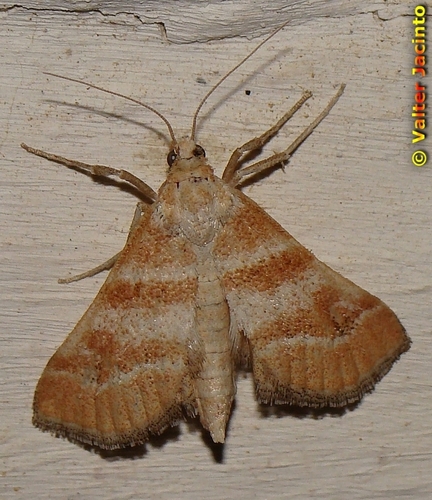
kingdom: Animalia
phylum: Arthropoda
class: Insecta
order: Lepidoptera
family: Crambidae
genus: Metasia
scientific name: Metasia suppandalis
